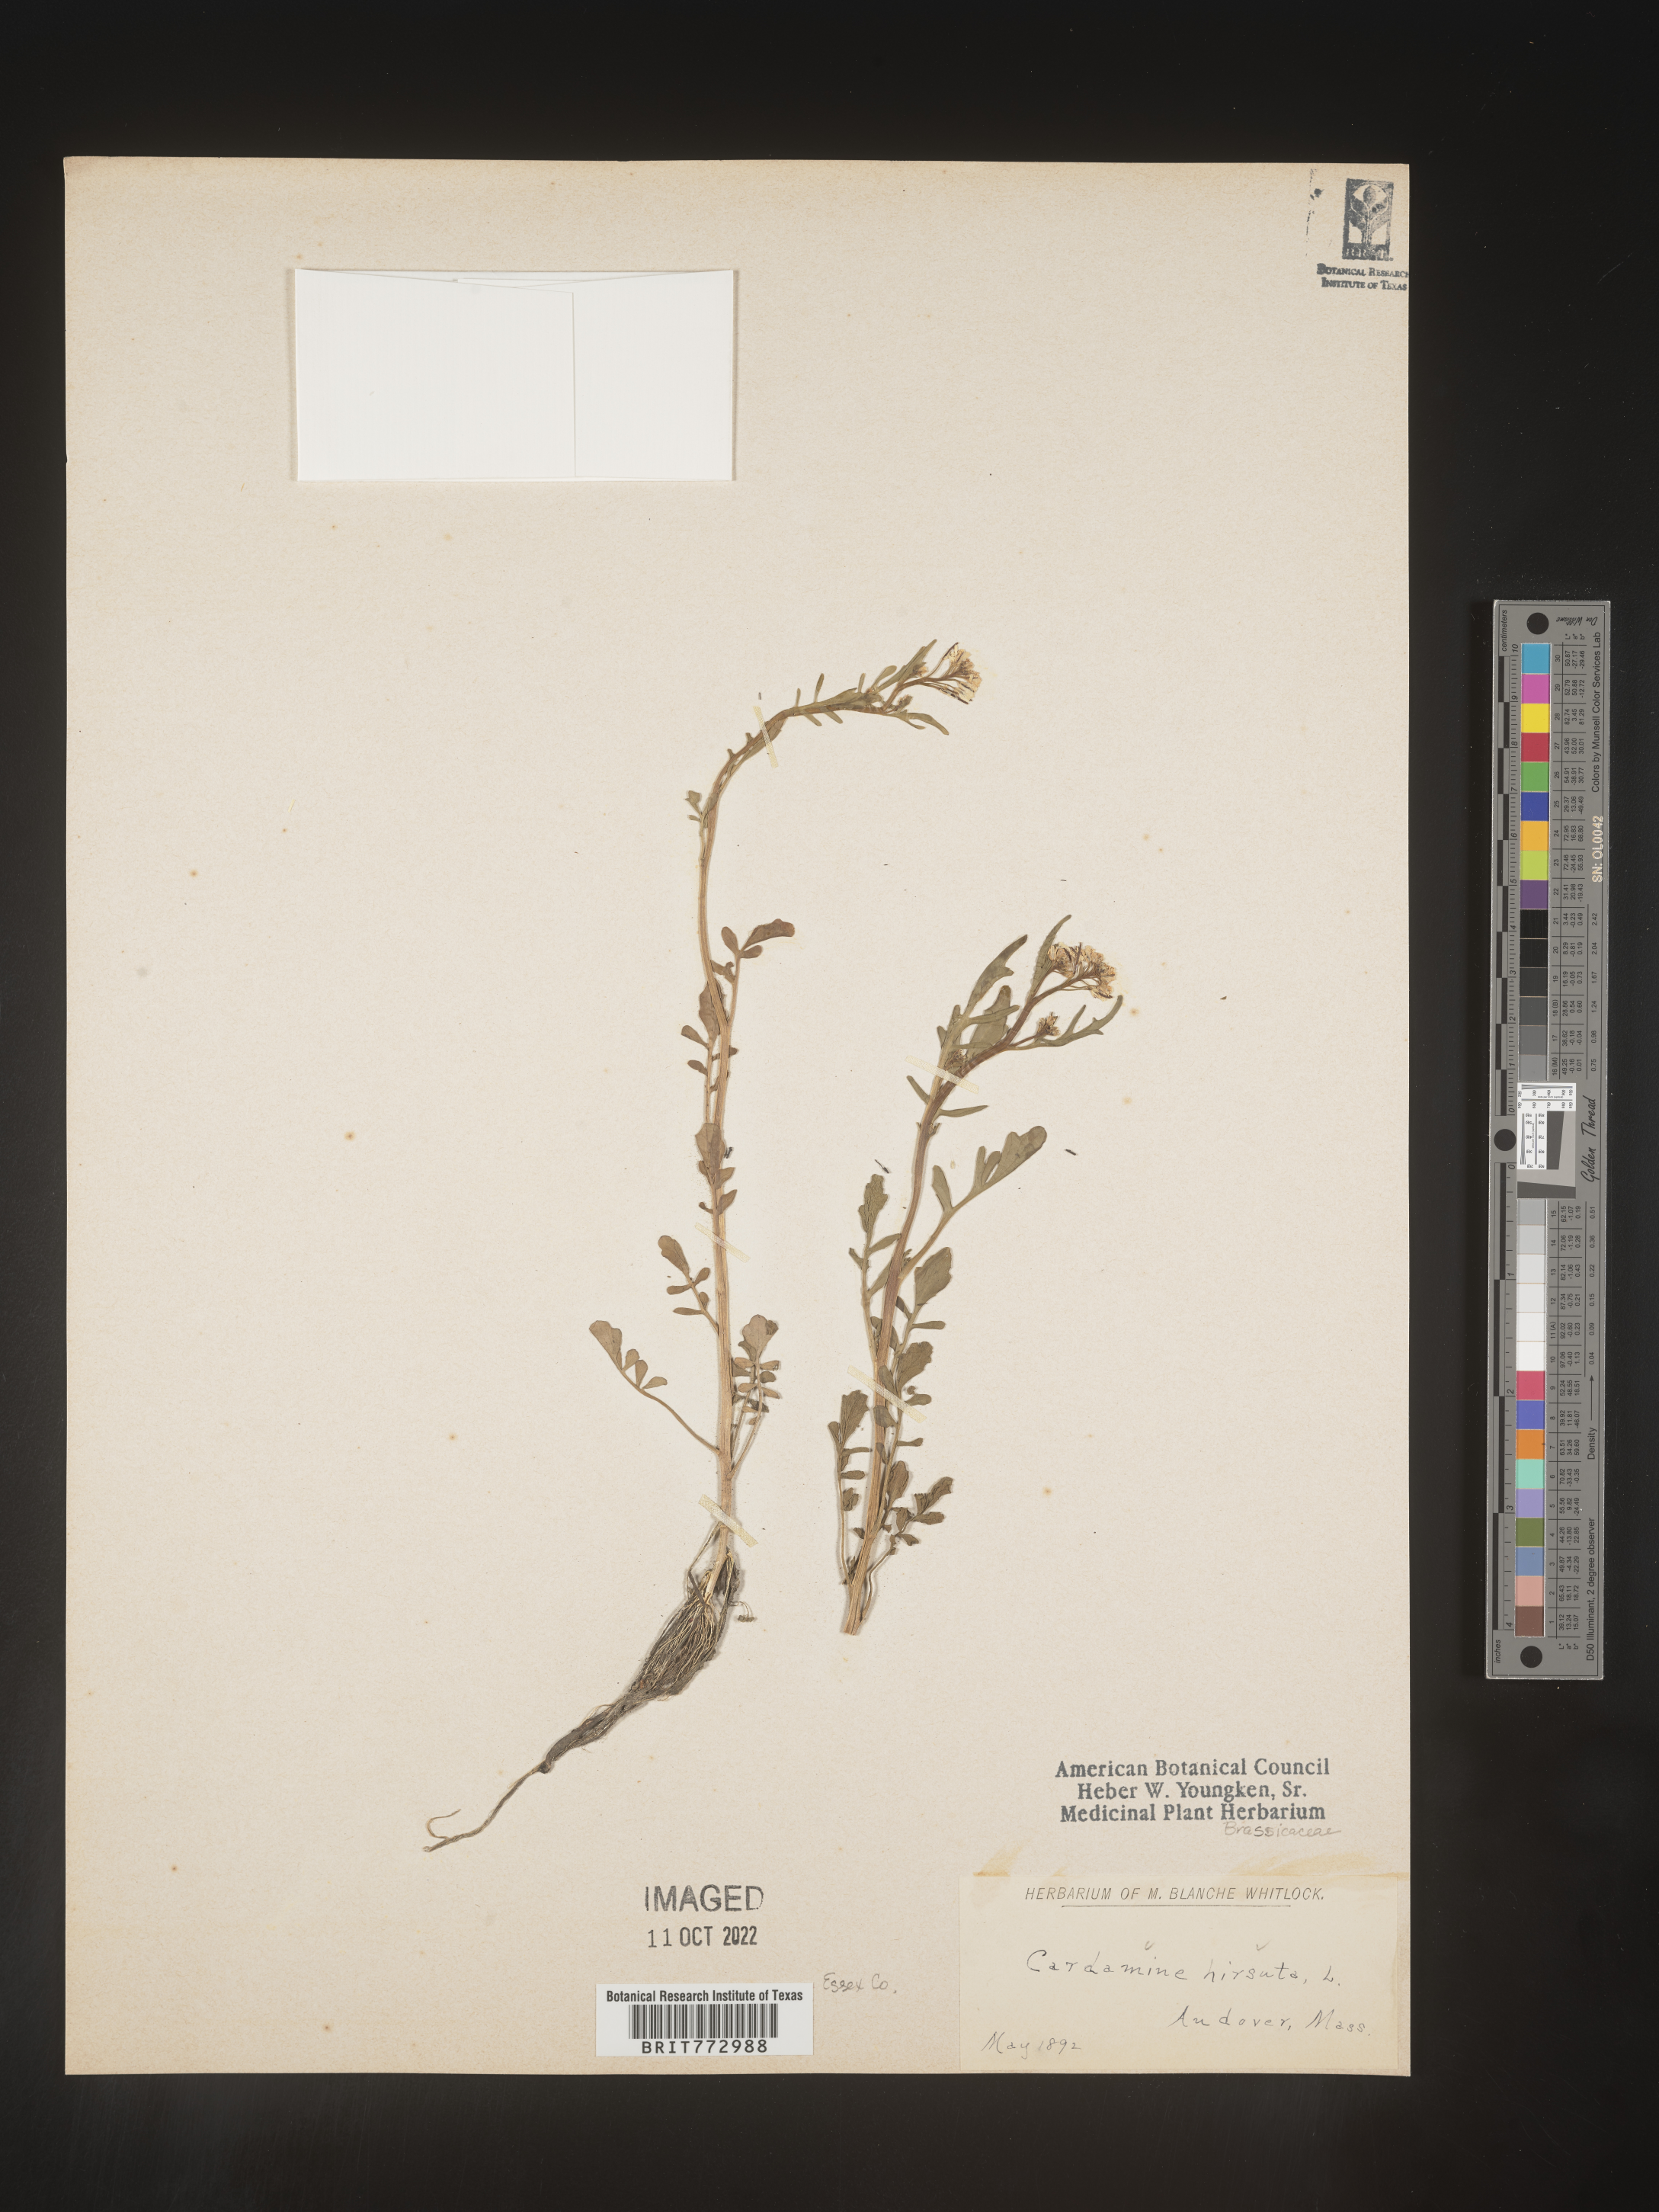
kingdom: Plantae
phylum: Tracheophyta
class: Magnoliopsida
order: Brassicales
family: Brassicaceae
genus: Cardamine
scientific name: Cardamine hirsuta
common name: Hairy bittercress
